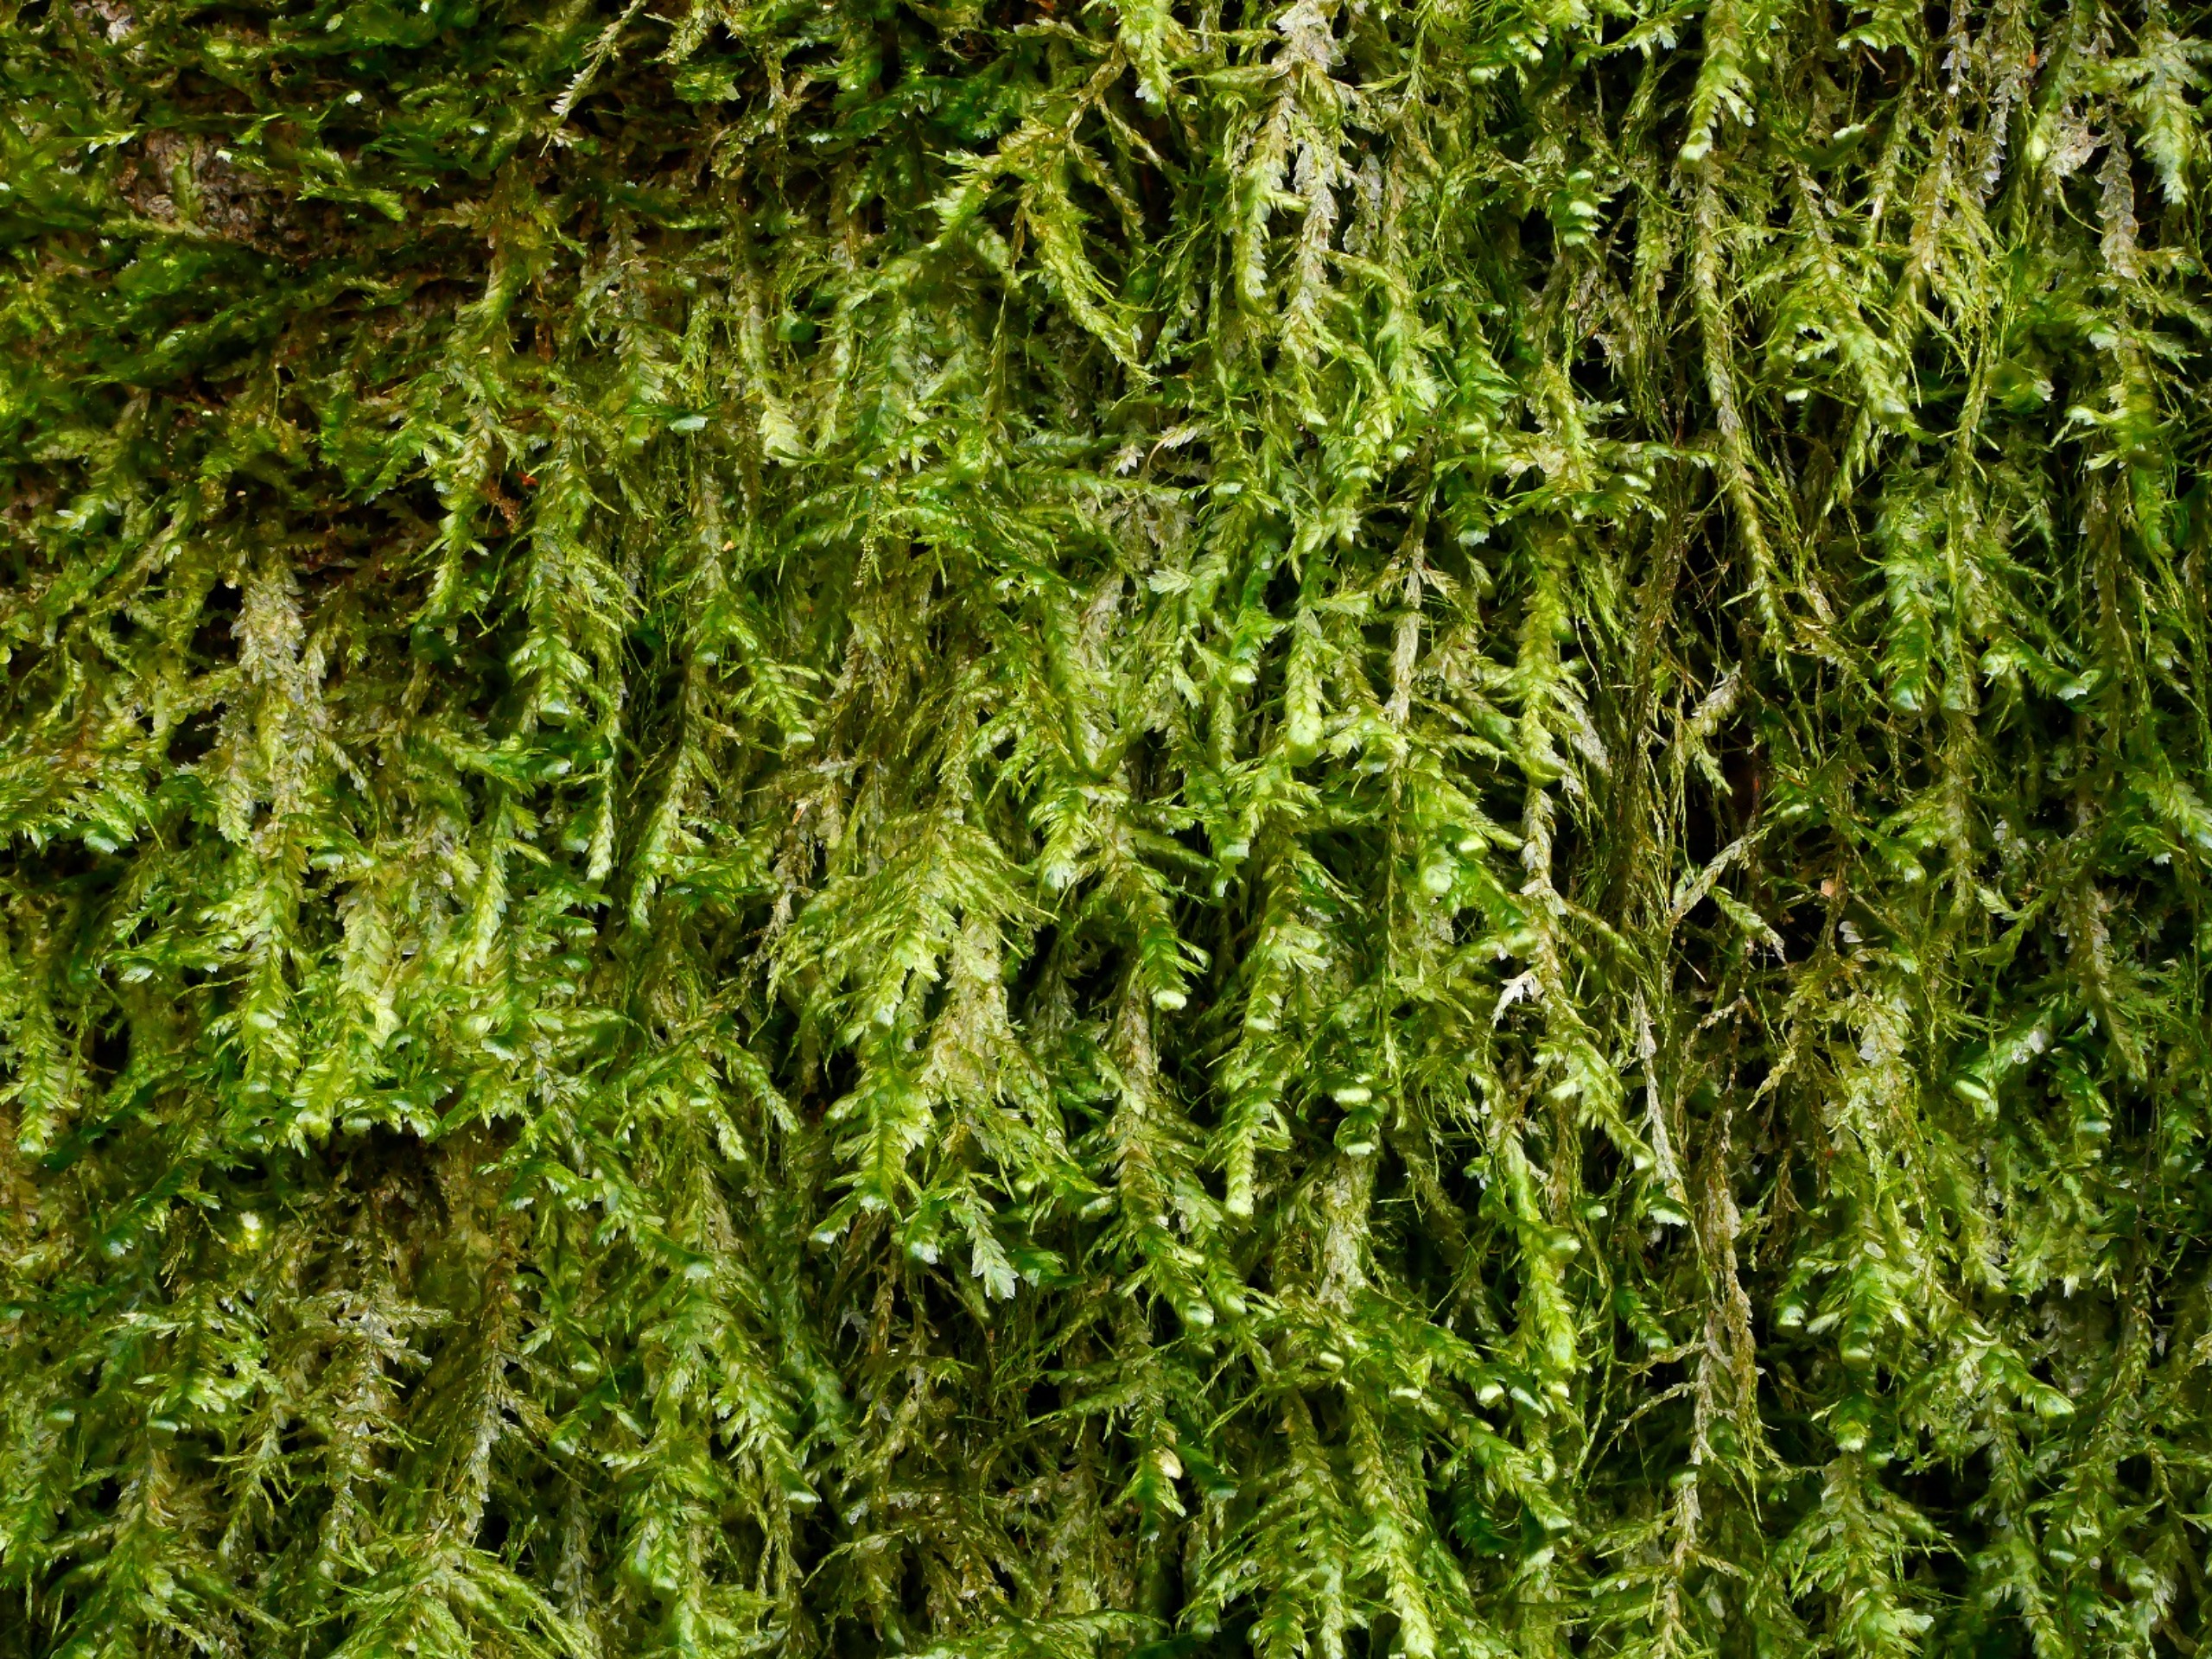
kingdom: Plantae
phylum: Bryophyta
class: Bryopsida
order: Hypnales
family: Neckeraceae
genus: Alleniella
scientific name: Alleniella complanata
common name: Almindelig fladmos
